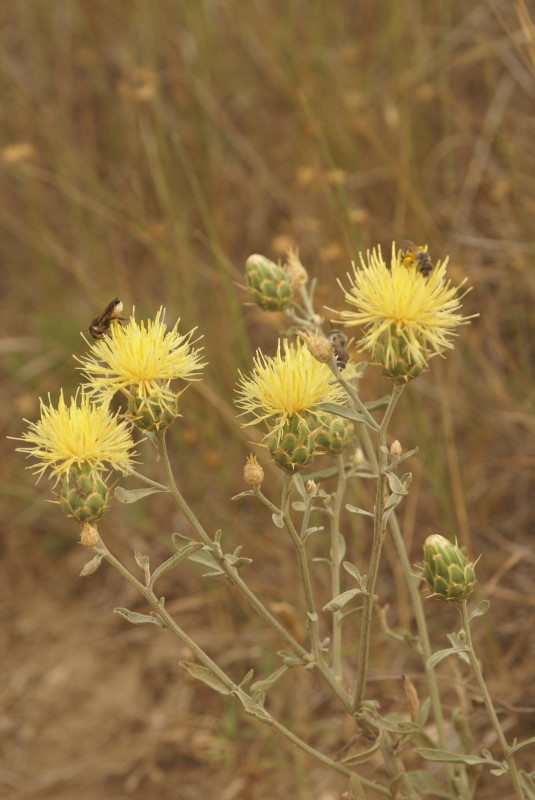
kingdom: Plantae
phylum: Tracheophyta
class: Magnoliopsida
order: Asterales
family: Asteraceae
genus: Centaurea
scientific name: Centaurea solstitialis
